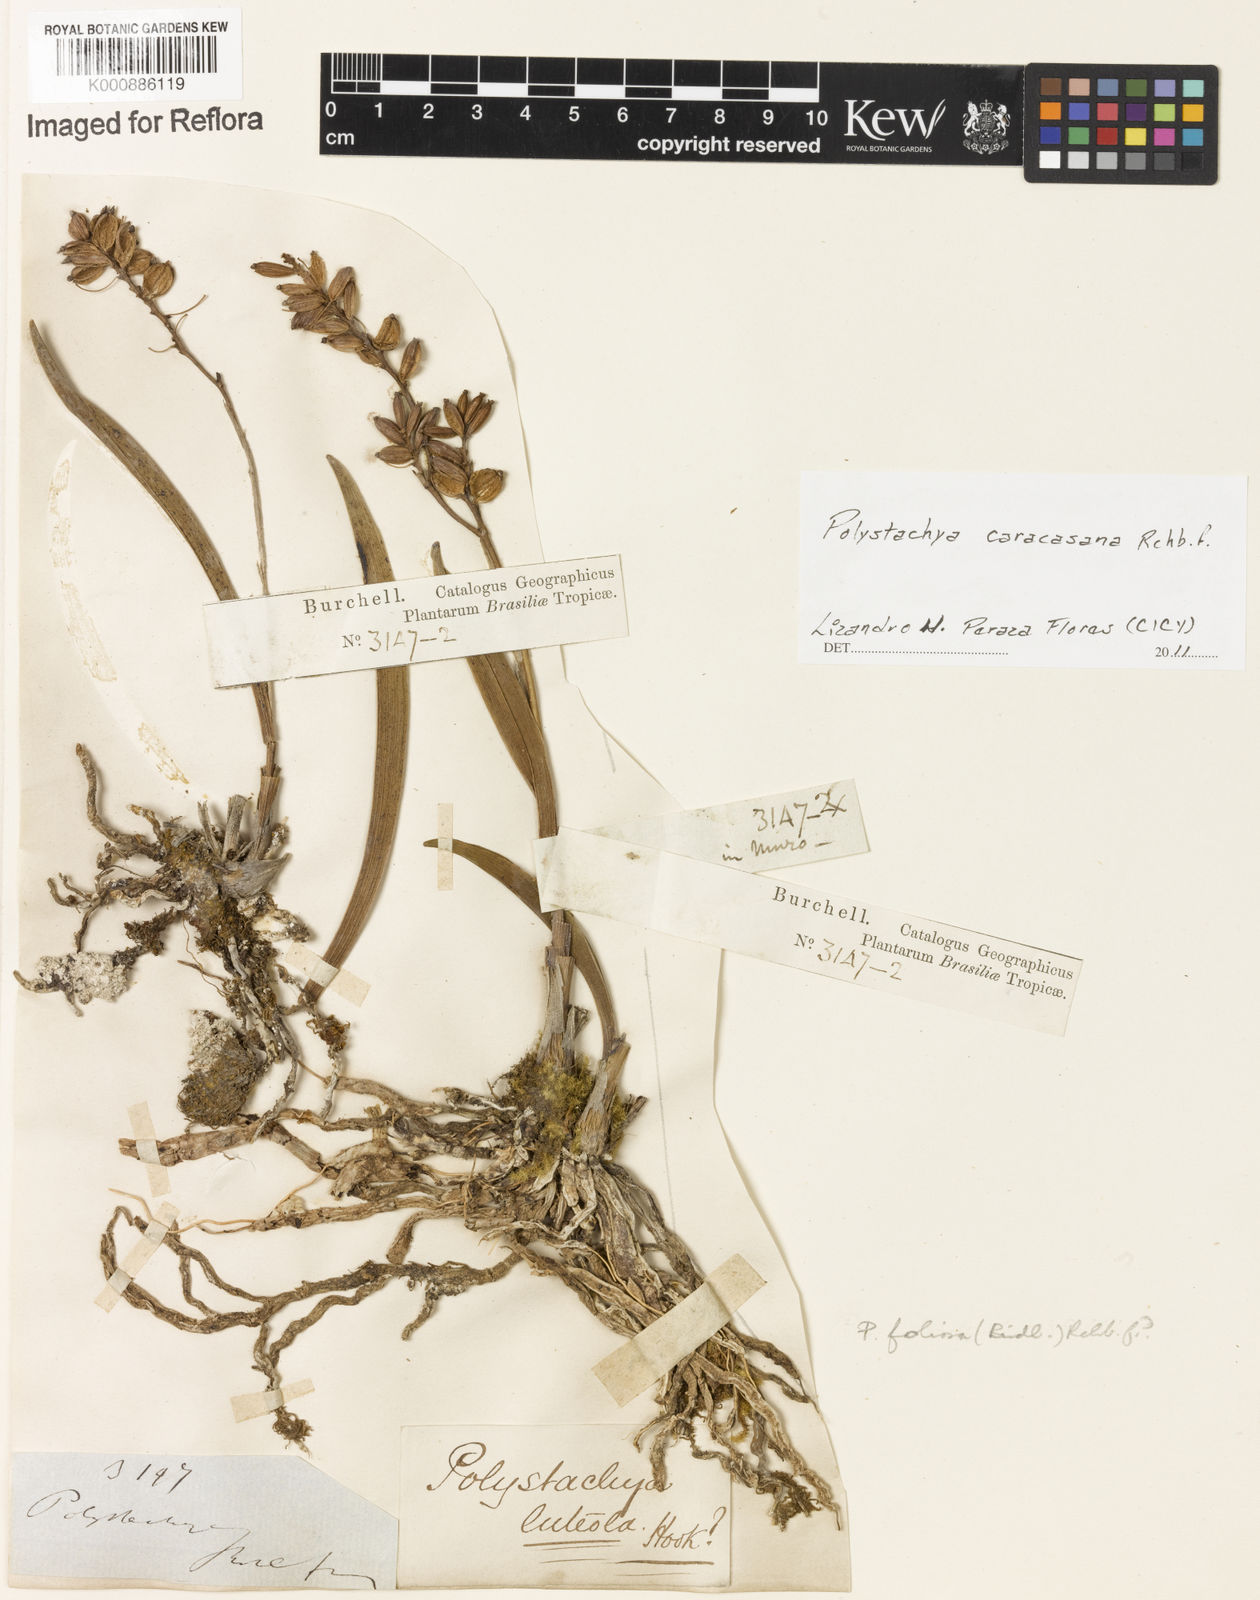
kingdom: Plantae
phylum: Tracheophyta
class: Liliopsida
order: Asparagales
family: Orchidaceae
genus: Polystachya
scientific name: Polystachya foliosa
